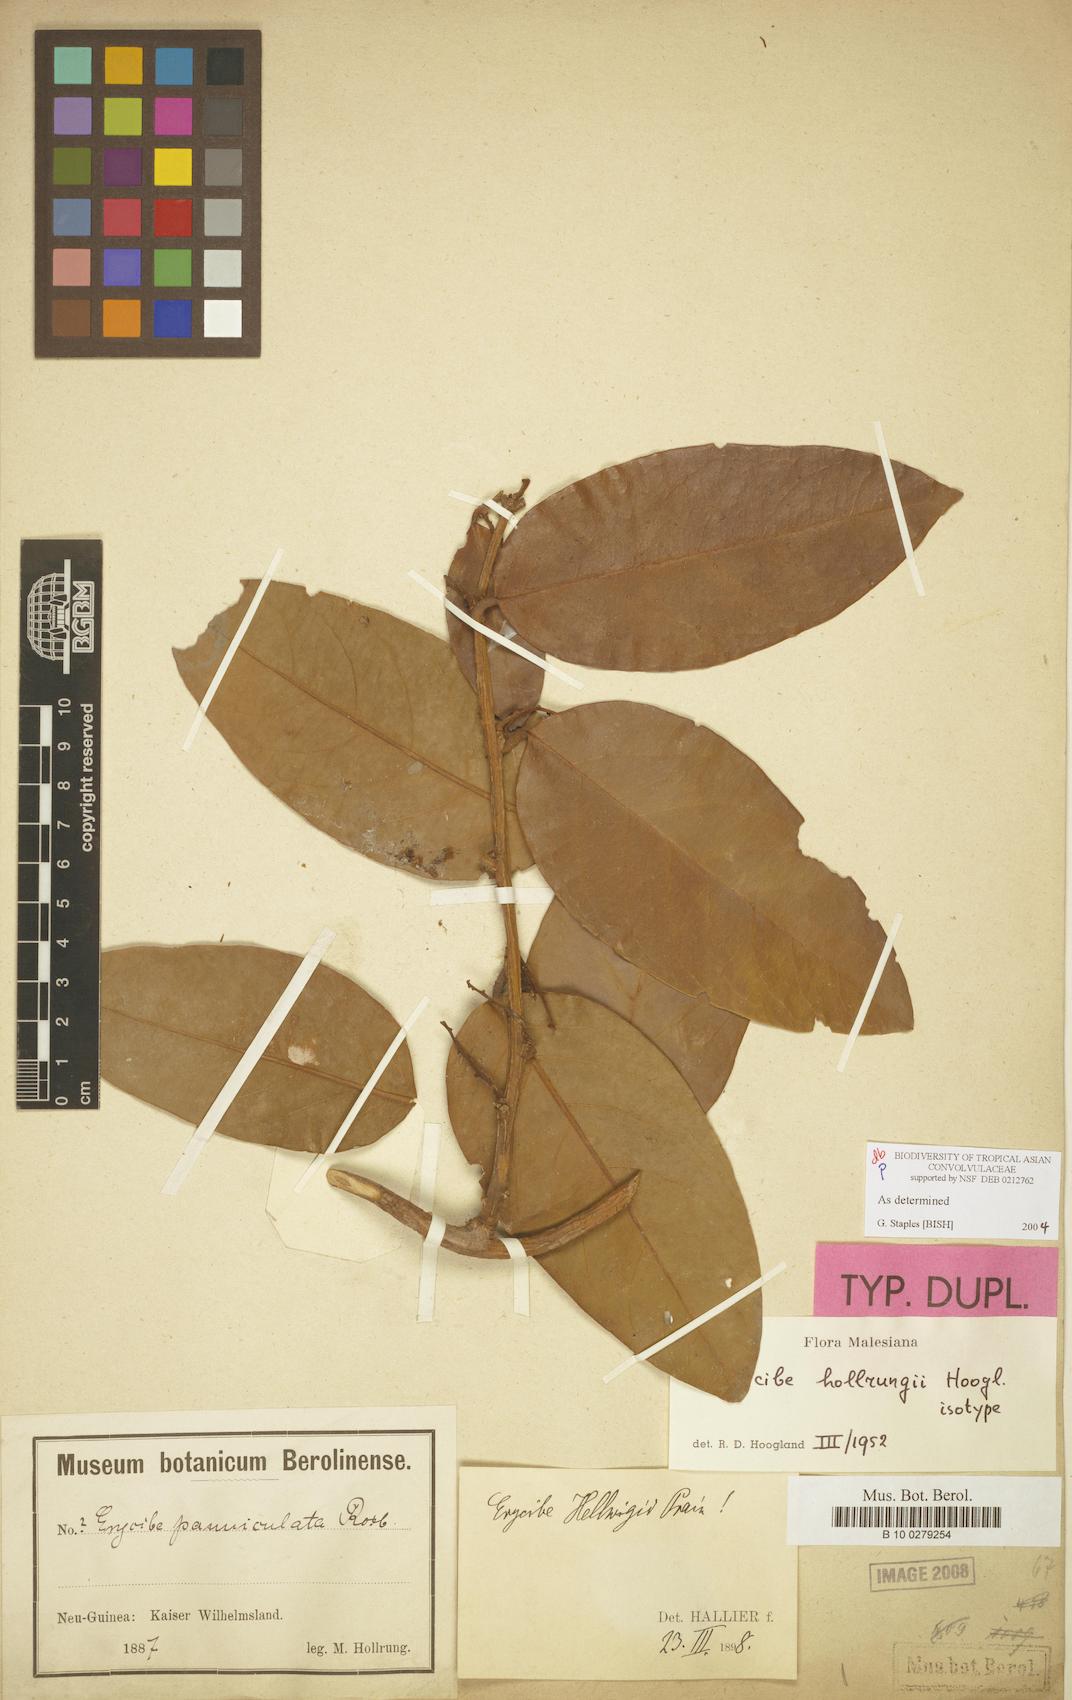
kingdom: Plantae
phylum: Tracheophyta
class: Magnoliopsida
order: Solanales
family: Convolvulaceae
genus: Erycibe
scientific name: Erycibe hollrungii
